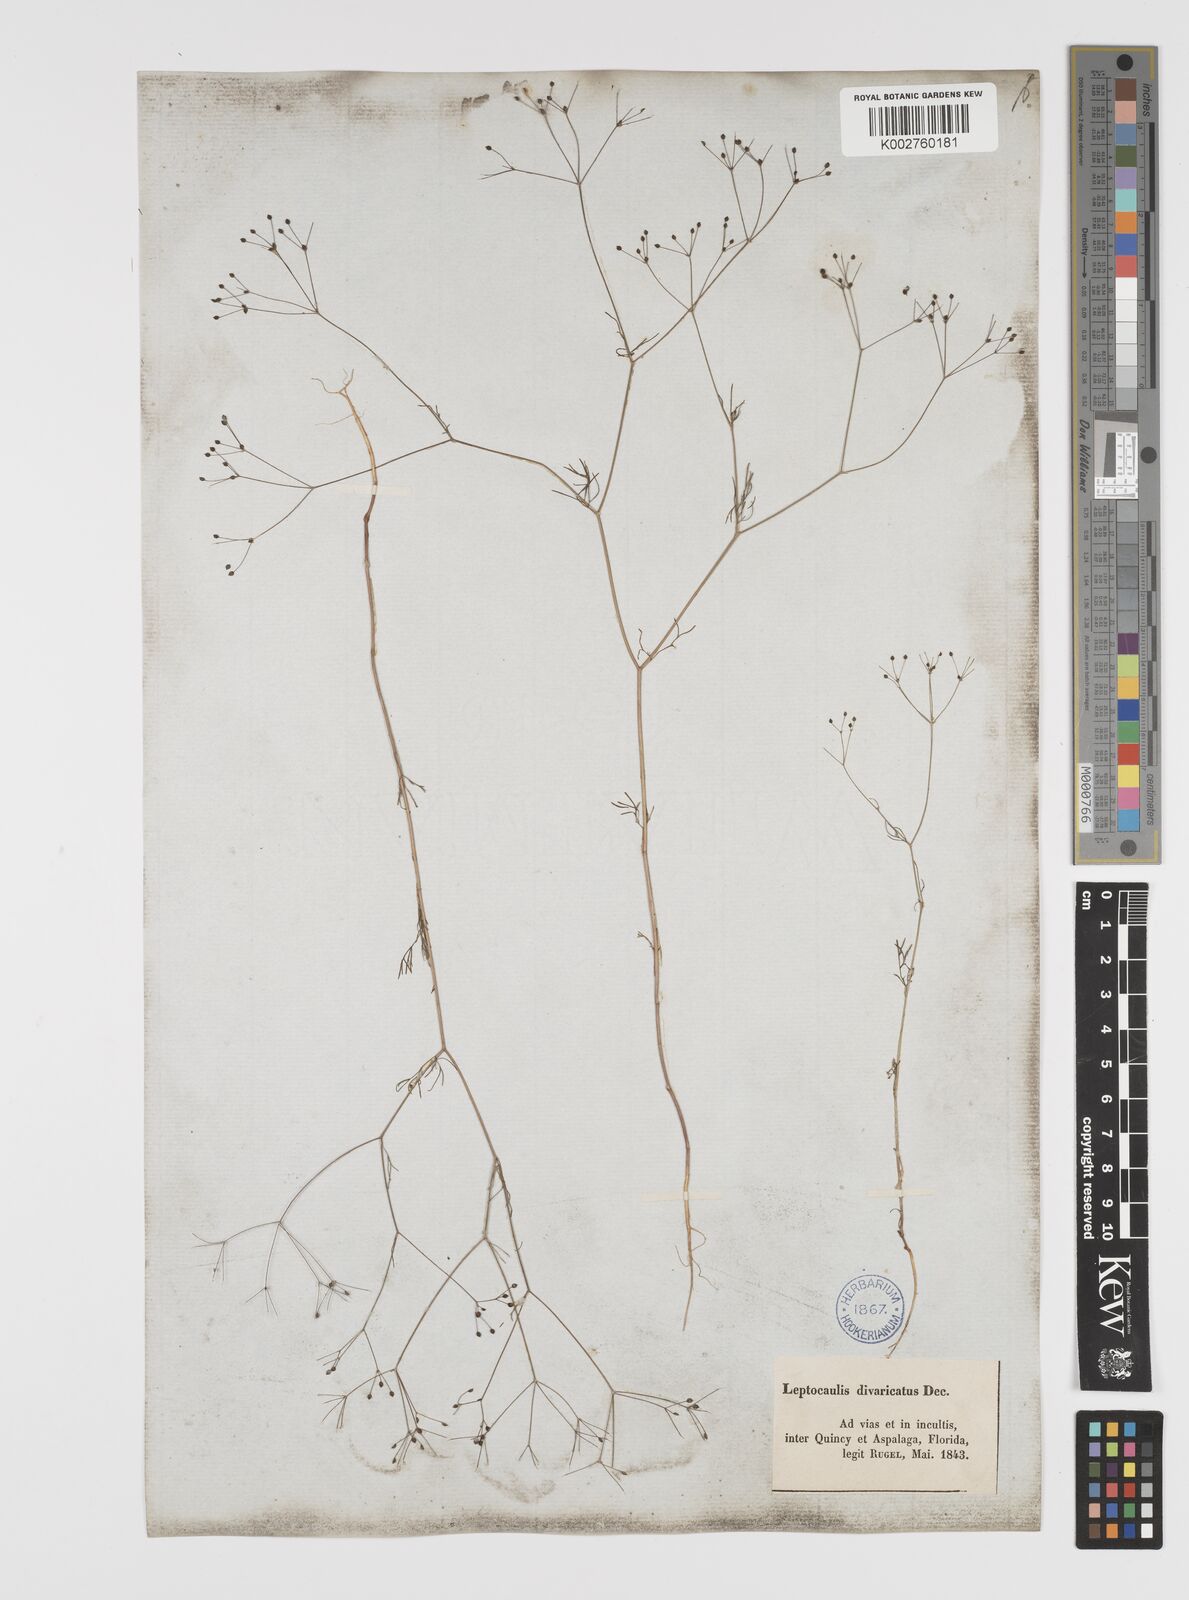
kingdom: Plantae
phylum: Tracheophyta
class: Magnoliopsida
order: Apiales
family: Apiaceae
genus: Spermolepis
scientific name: Spermolepis divaricata
